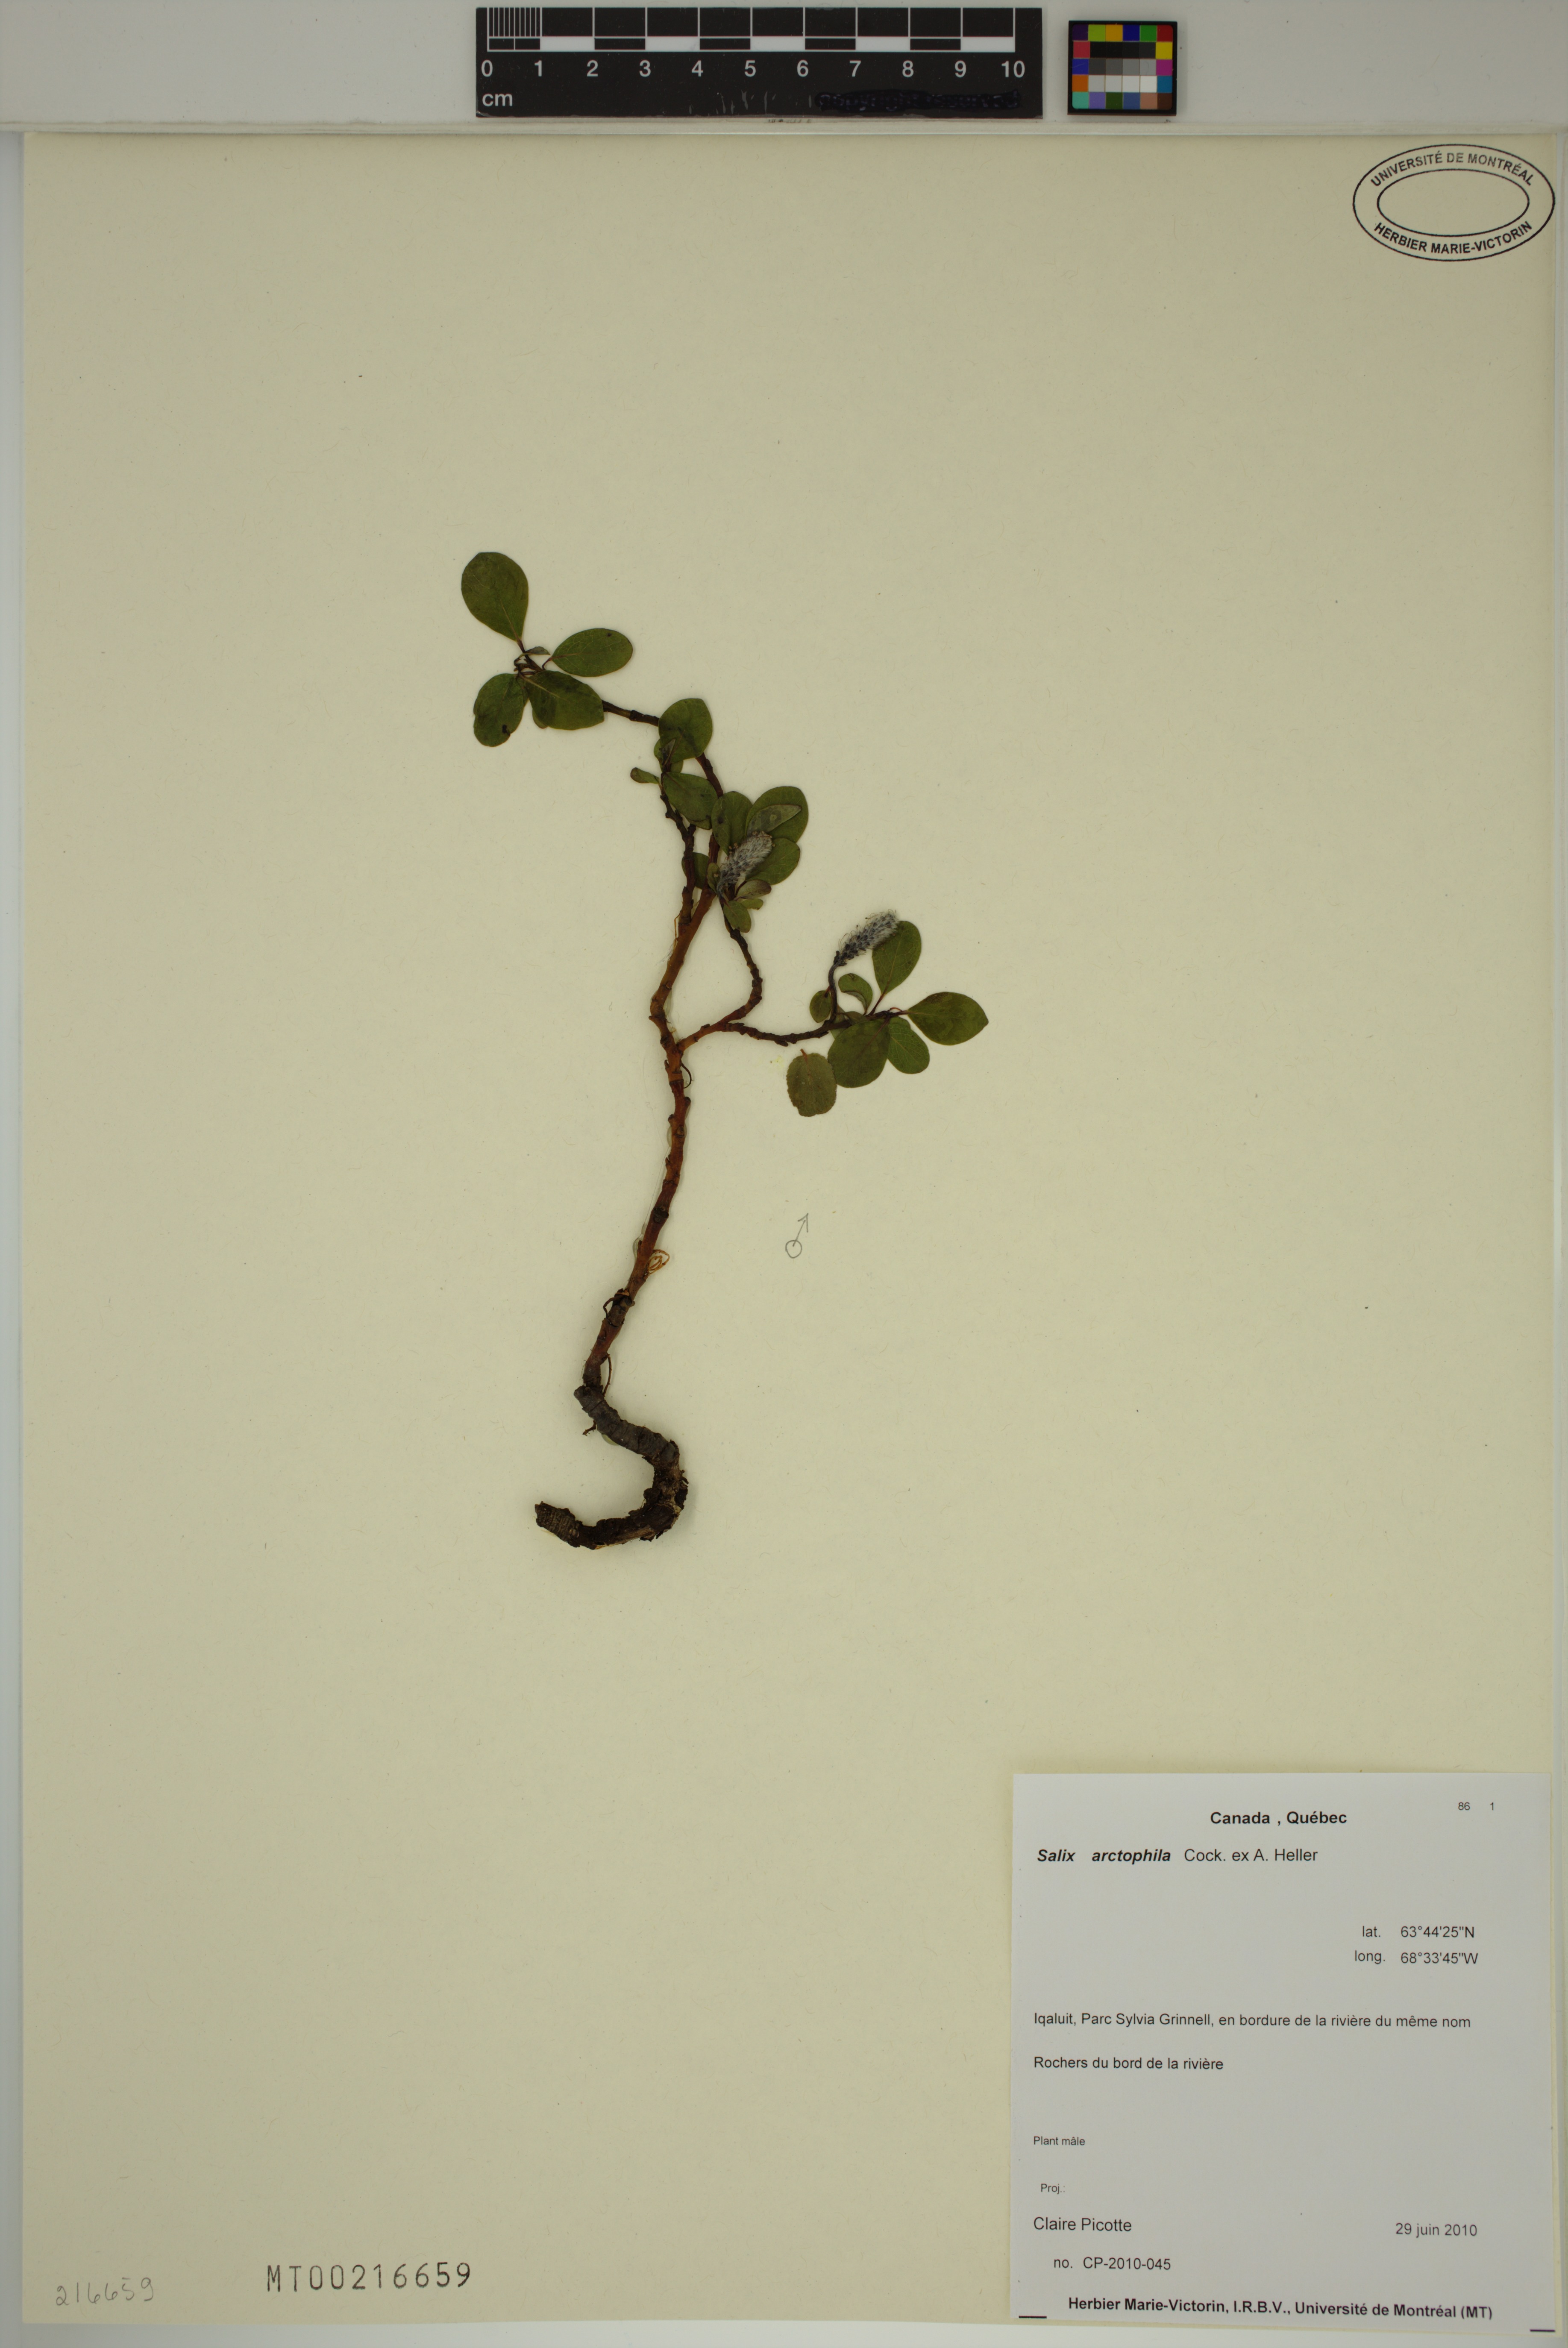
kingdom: Plantae
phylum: Tracheophyta
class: Magnoliopsida
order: Malpighiales
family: Salicaceae
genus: Salix
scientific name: Salix arctophila
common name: Greenland willow
